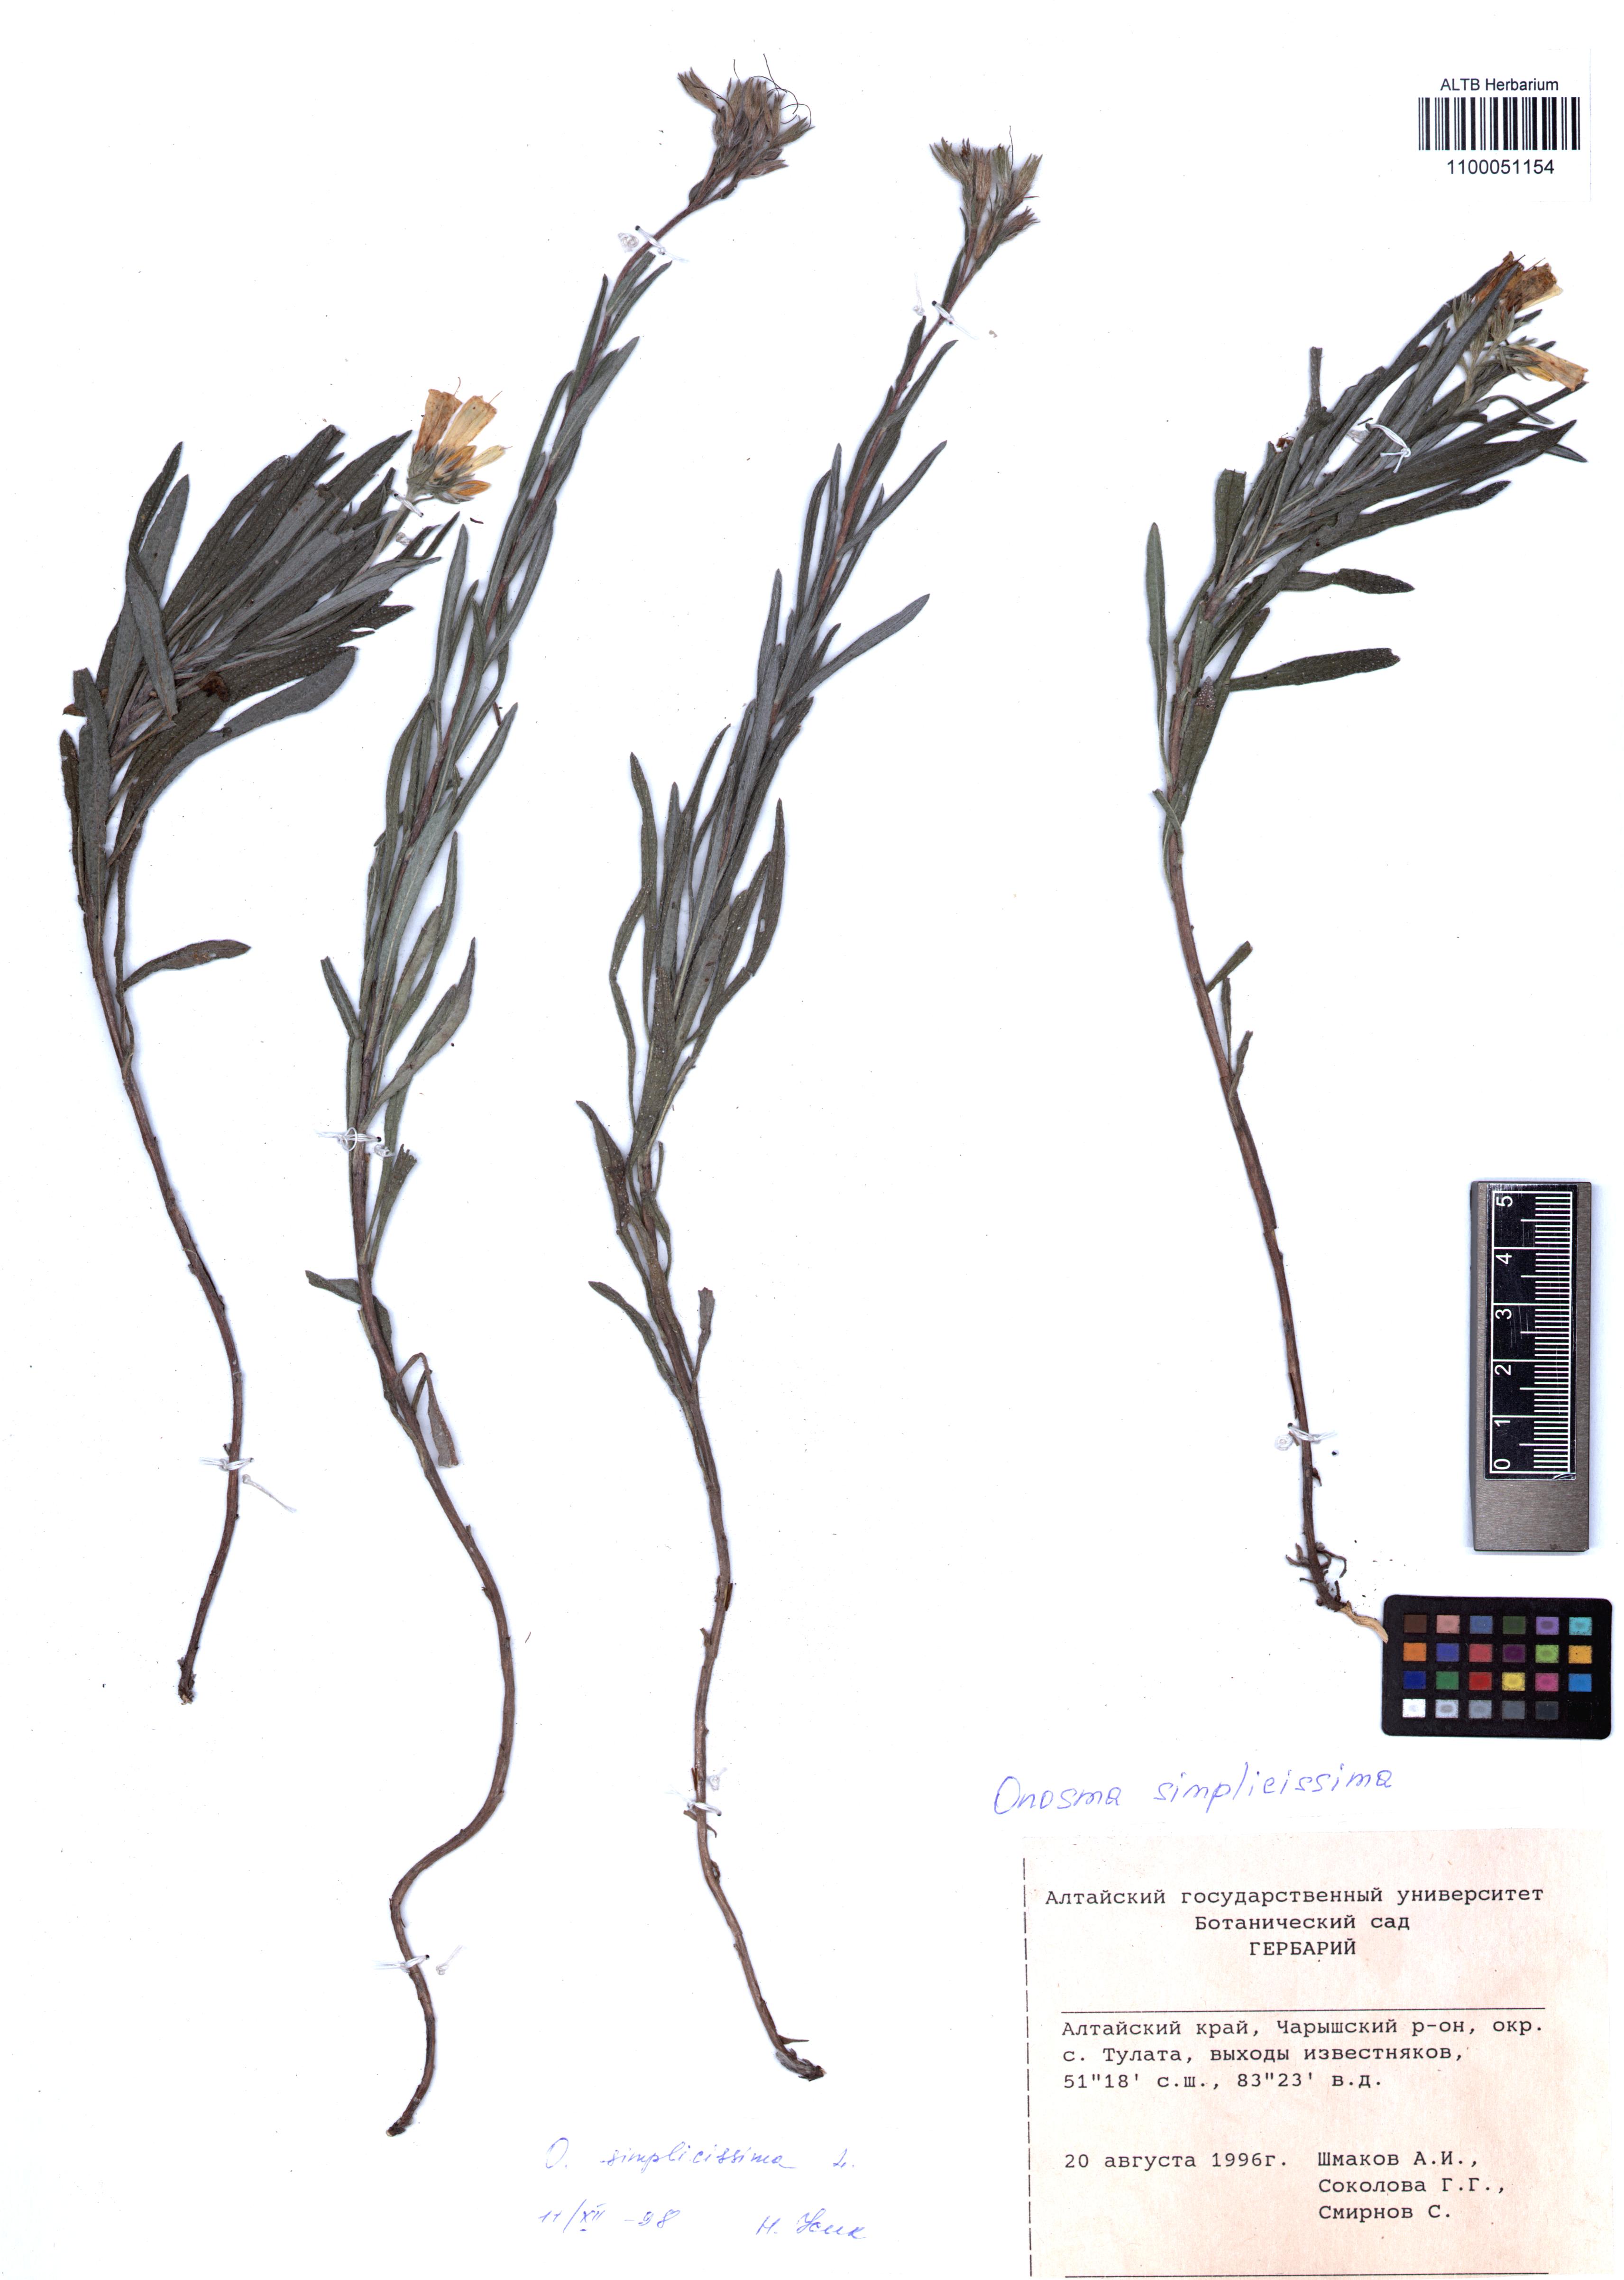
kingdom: Plantae
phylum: Tracheophyta
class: Magnoliopsida
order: Boraginales
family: Boraginaceae
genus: Onosma
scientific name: Onosma simplicissima
